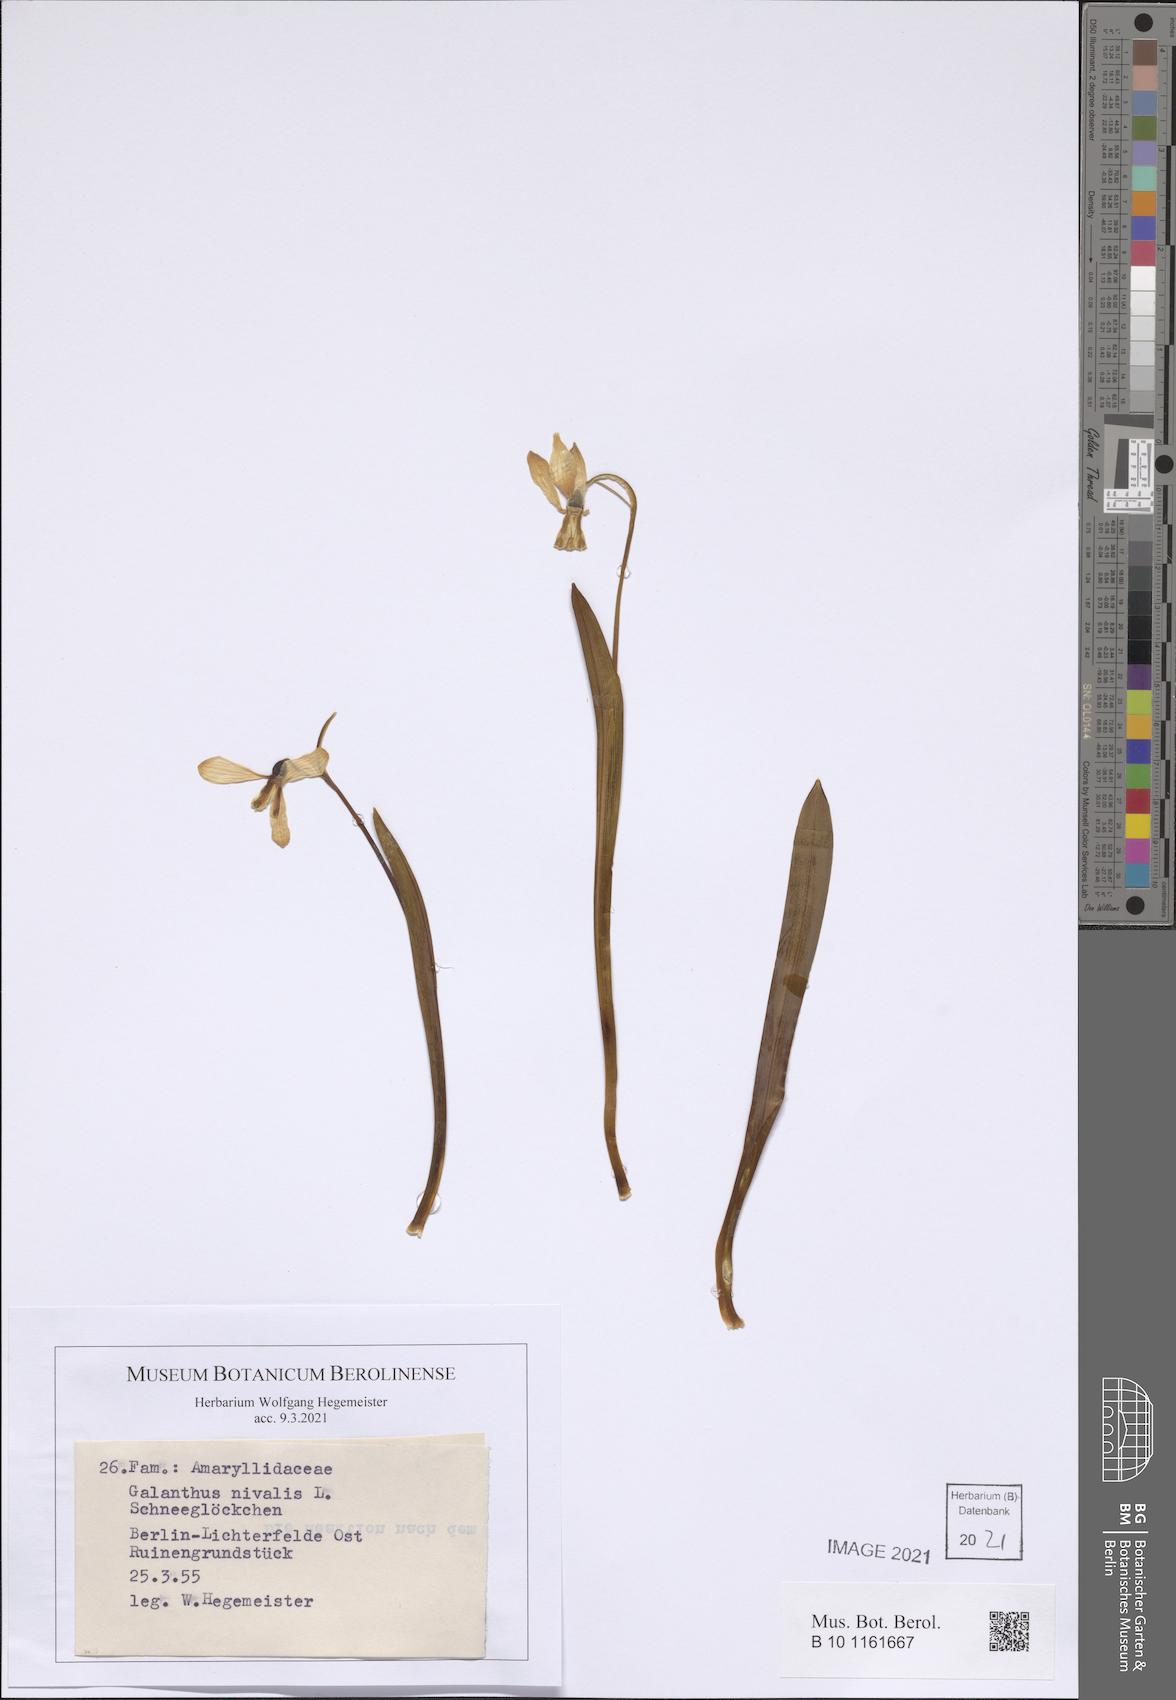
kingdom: Plantae
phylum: Tracheophyta
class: Liliopsida
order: Asparagales
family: Amaryllidaceae
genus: Galanthus
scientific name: Galanthus nivalis
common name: Snowdrop
